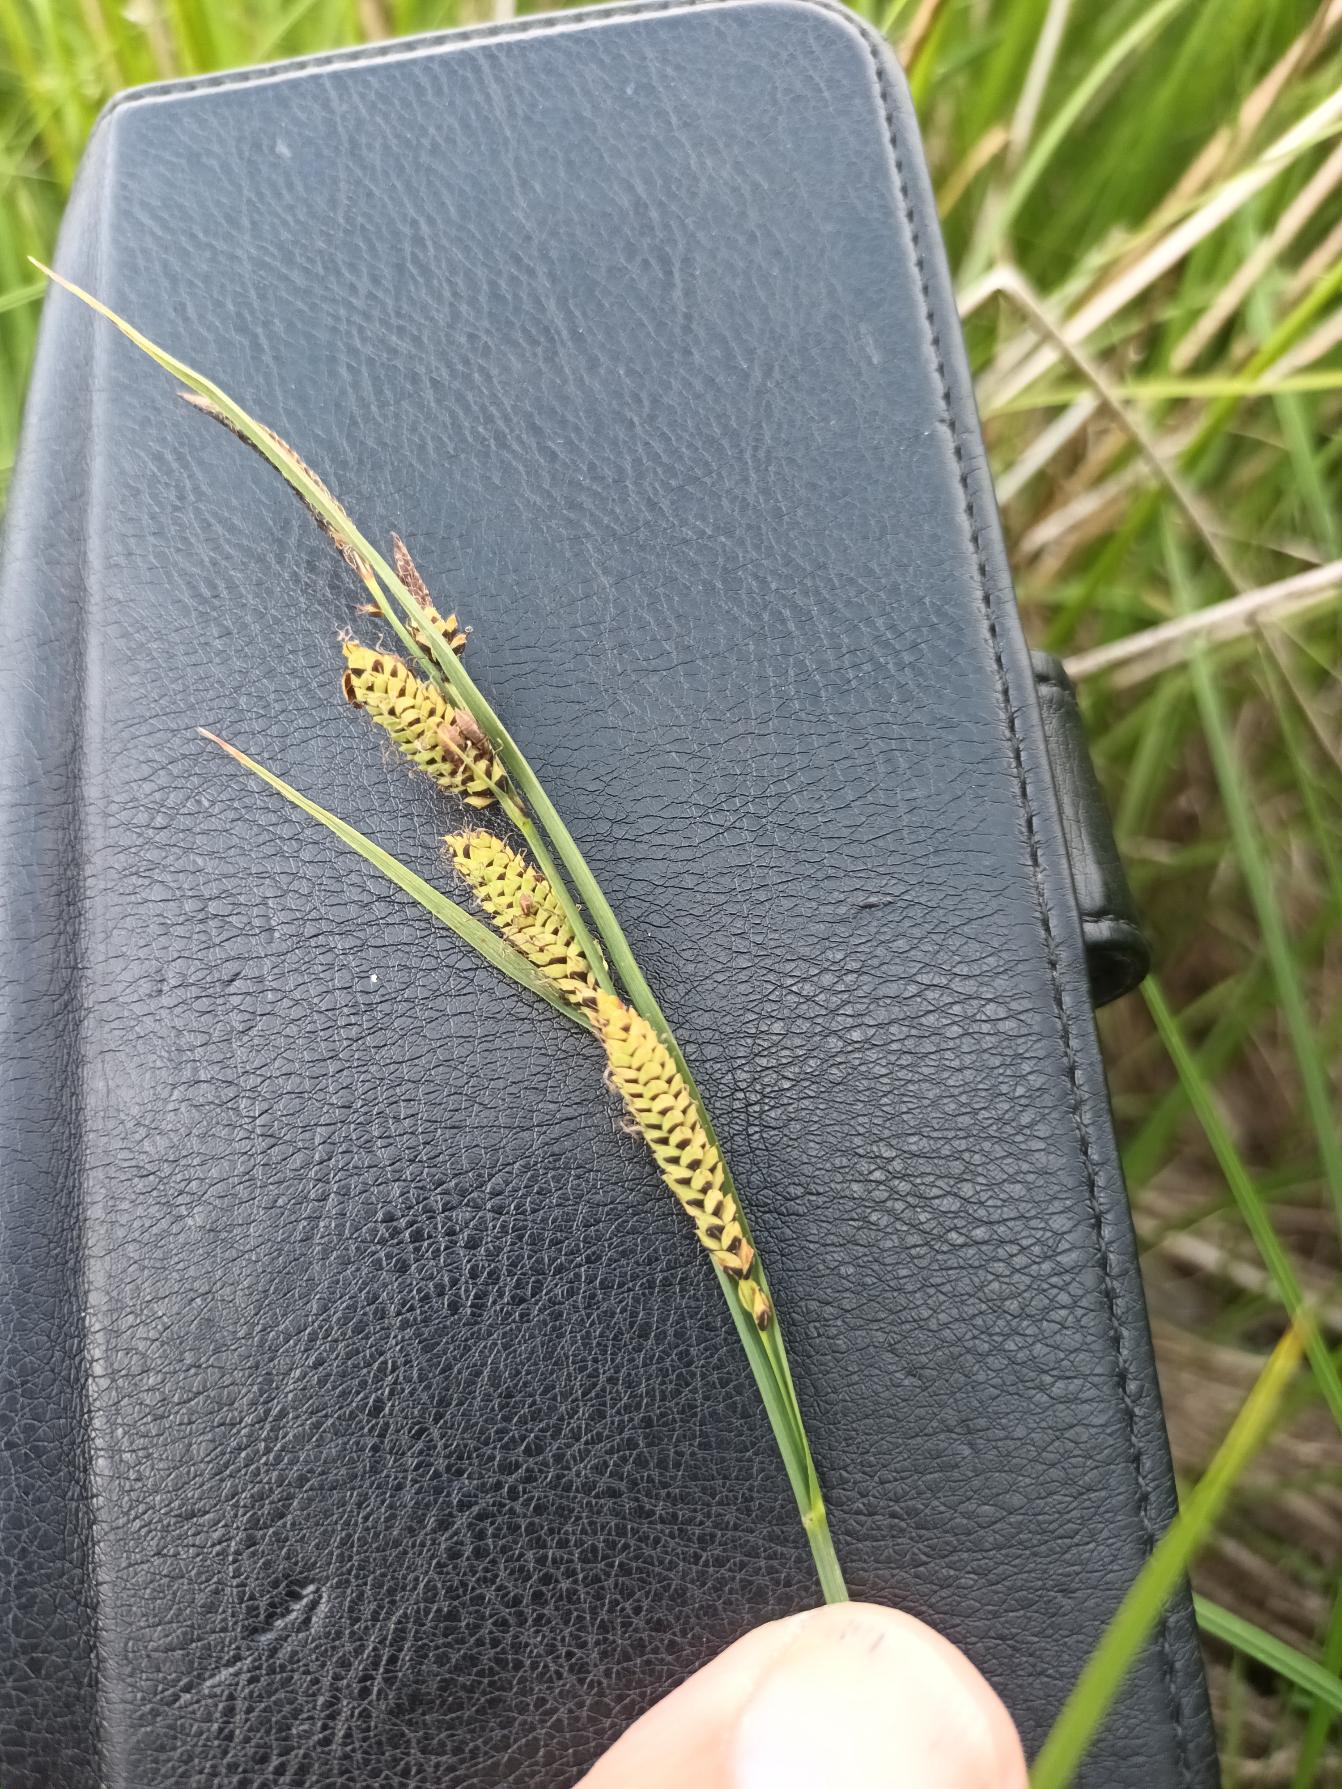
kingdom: Plantae
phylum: Tracheophyta
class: Liliopsida
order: Poales
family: Cyperaceae
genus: Carex
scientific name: Carex nigra
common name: Almindelig star
